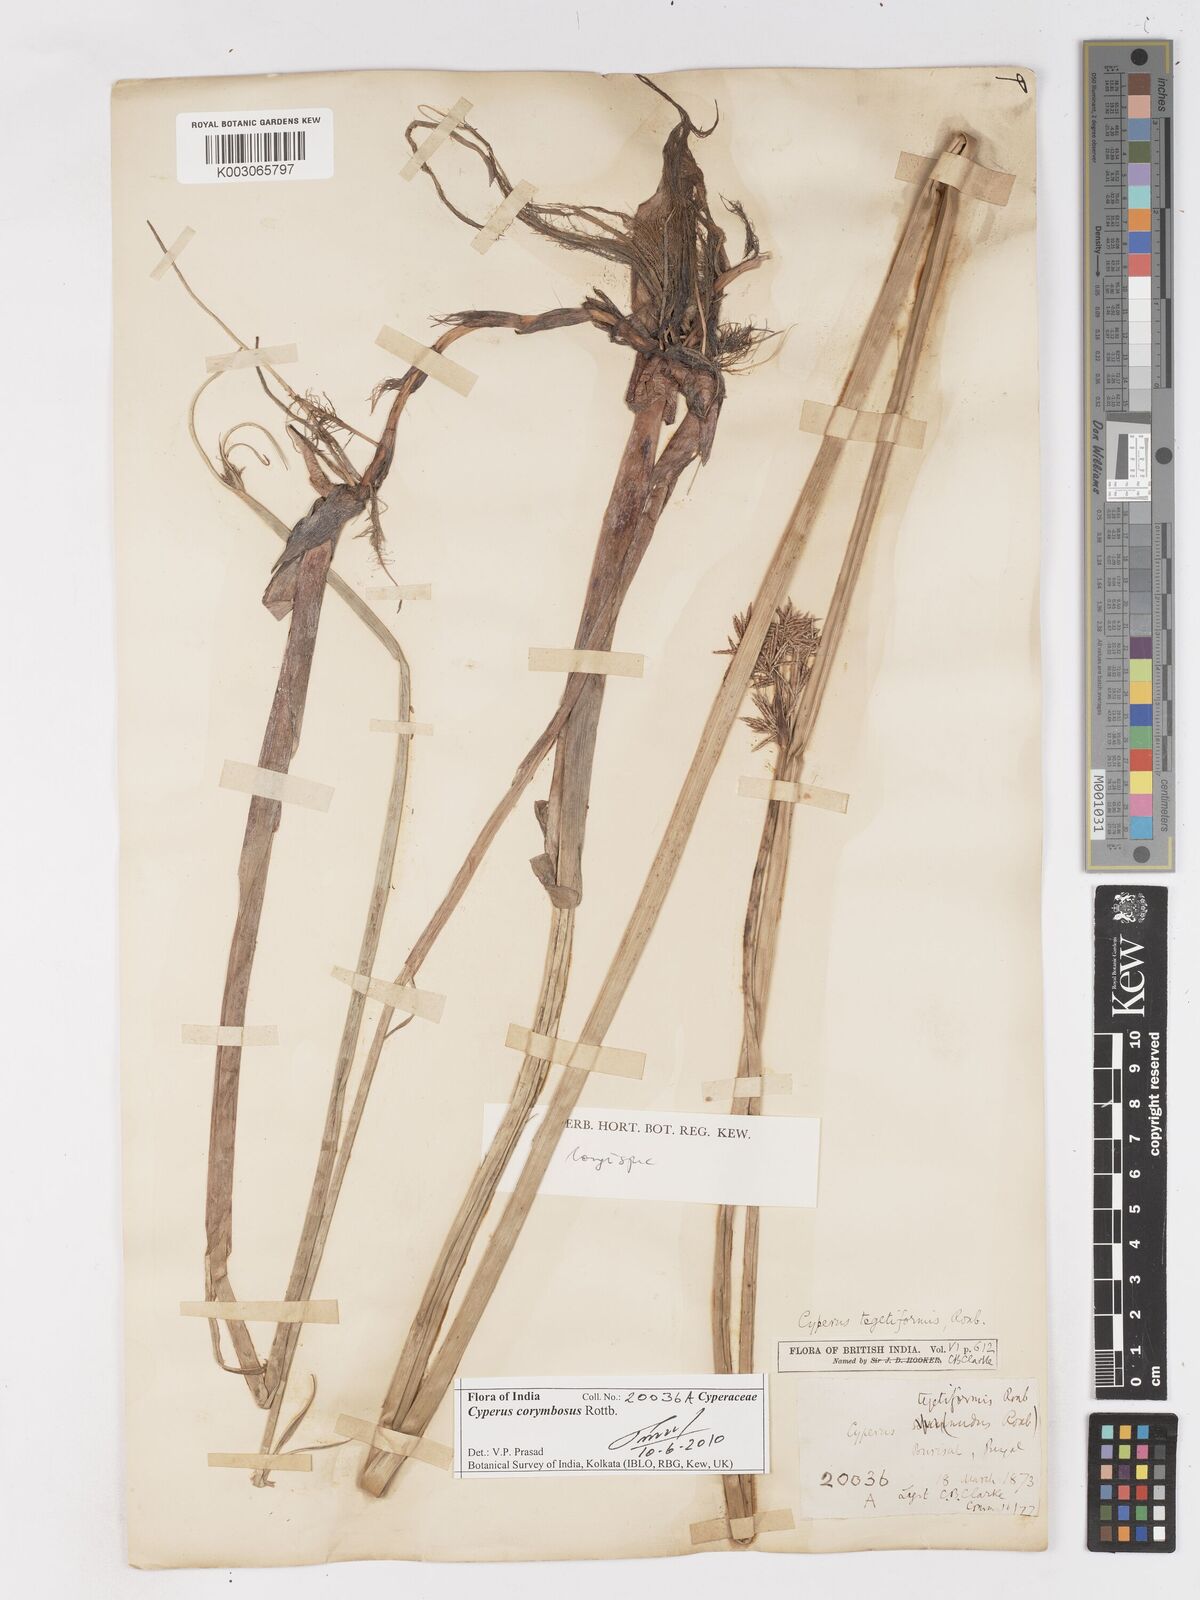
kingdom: Plantae
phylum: Tracheophyta
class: Liliopsida
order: Poales
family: Cyperaceae
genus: Cyperus
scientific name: Cyperus corymbosus
